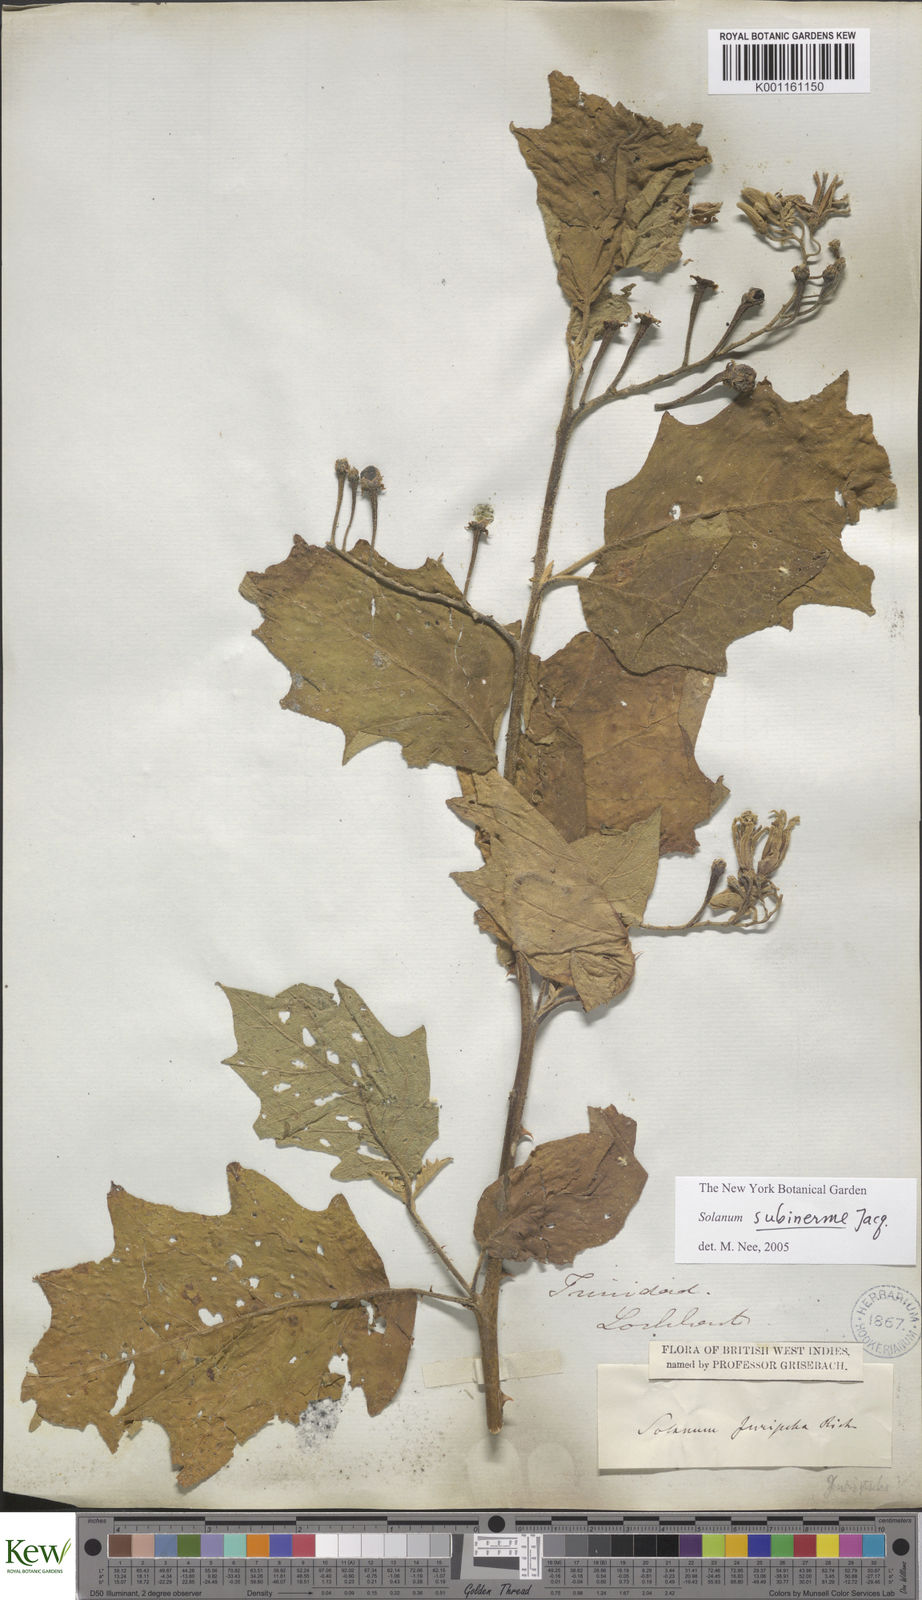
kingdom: Plantae
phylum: Tracheophyta
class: Magnoliopsida
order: Solanales
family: Solanaceae
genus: Solanum
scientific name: Solanum subinerme
